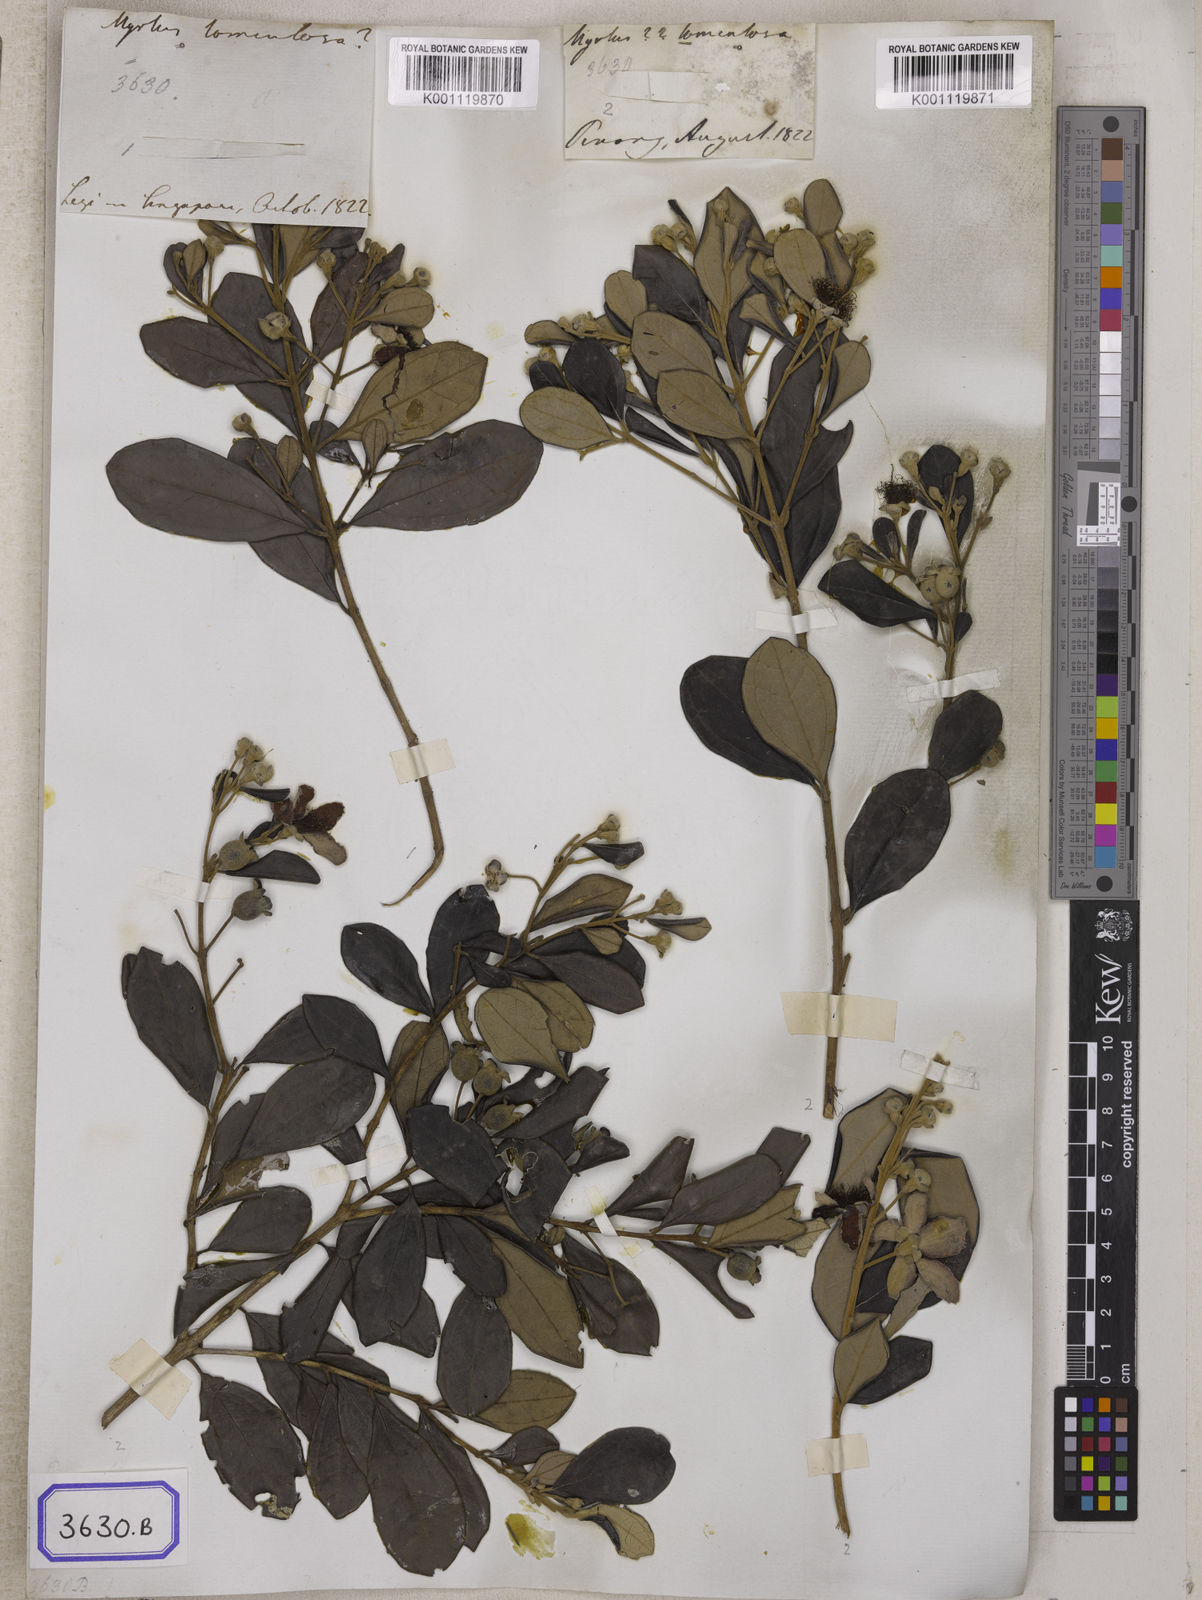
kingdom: Plantae
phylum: Tracheophyta
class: Magnoliopsida
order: Myrtales
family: Myrtaceae
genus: Rhodomyrtus
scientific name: Rhodomyrtus tomentosa
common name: Rose myrtle
